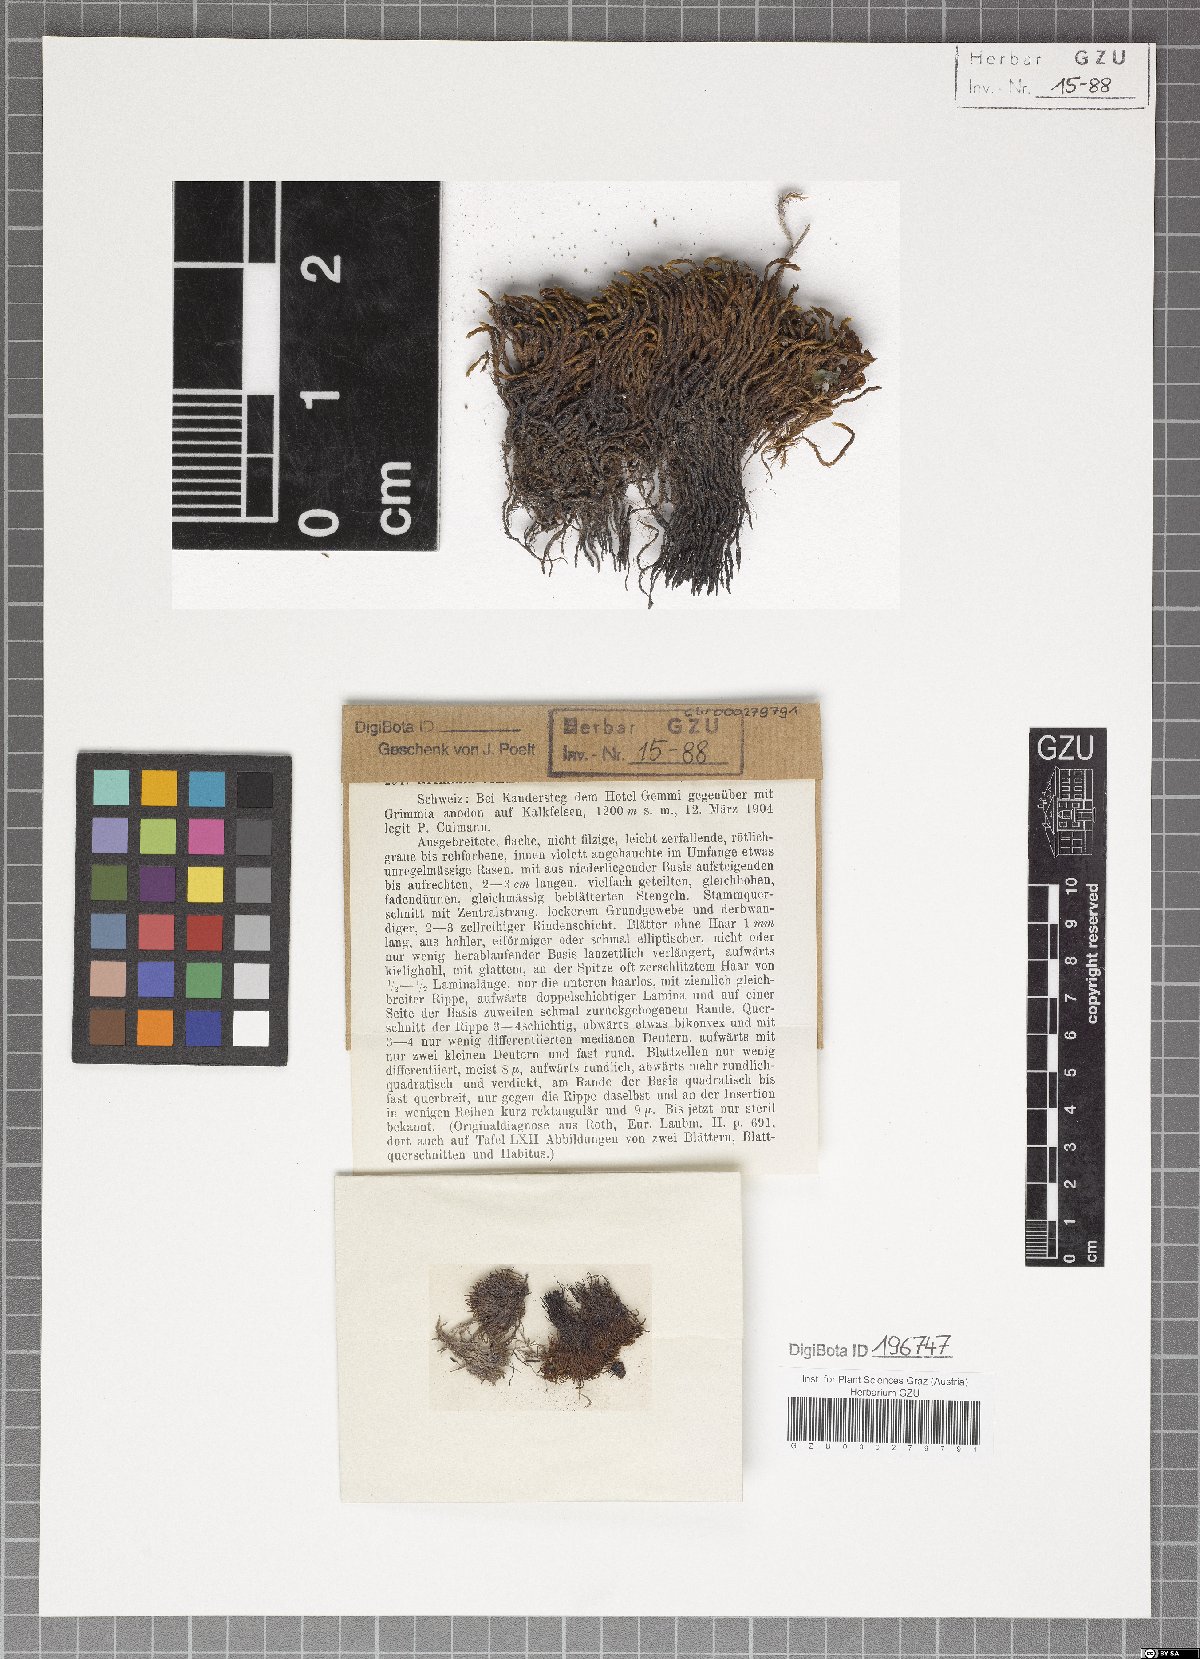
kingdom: Plantae
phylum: Bryophyta
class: Bryopsida
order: Grimmiales
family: Grimmiaceae
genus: Schistidium
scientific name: Schistidium teretinerve
